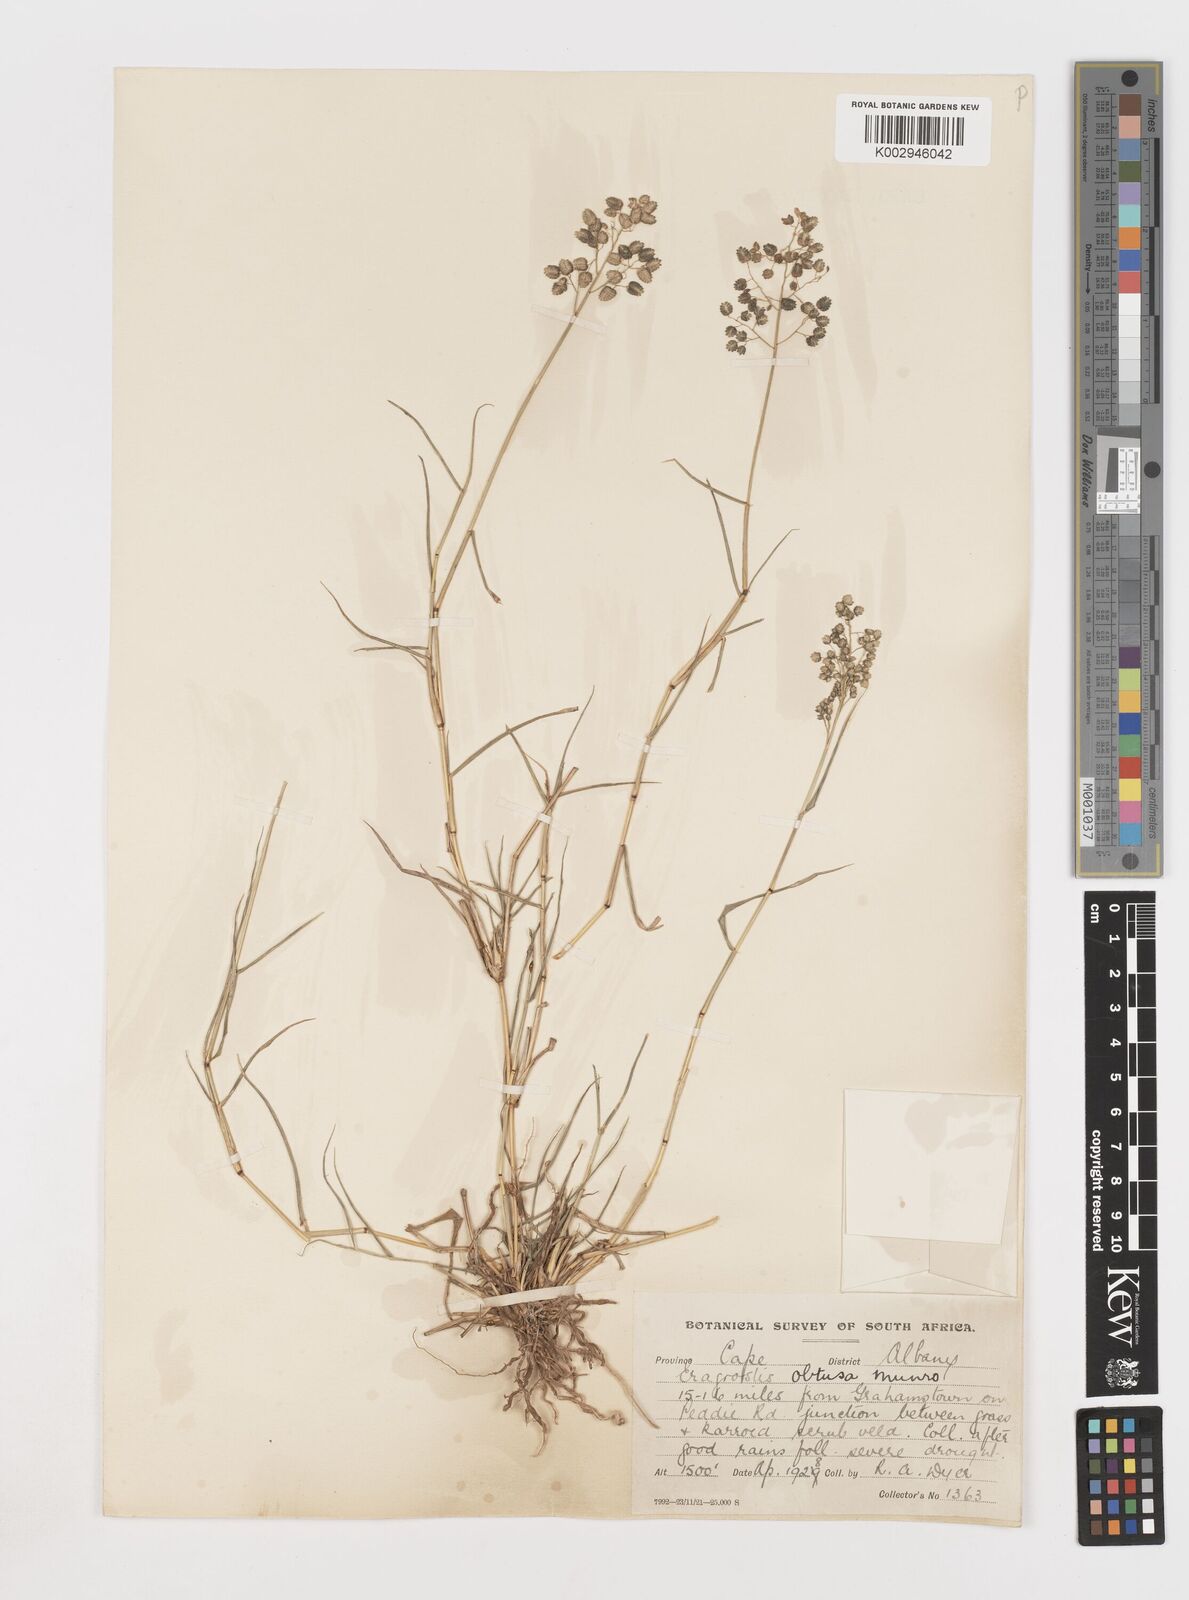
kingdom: Plantae
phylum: Tracheophyta
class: Liliopsida
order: Poales
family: Poaceae
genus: Eragrostis
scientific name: Eragrostis obtusa
